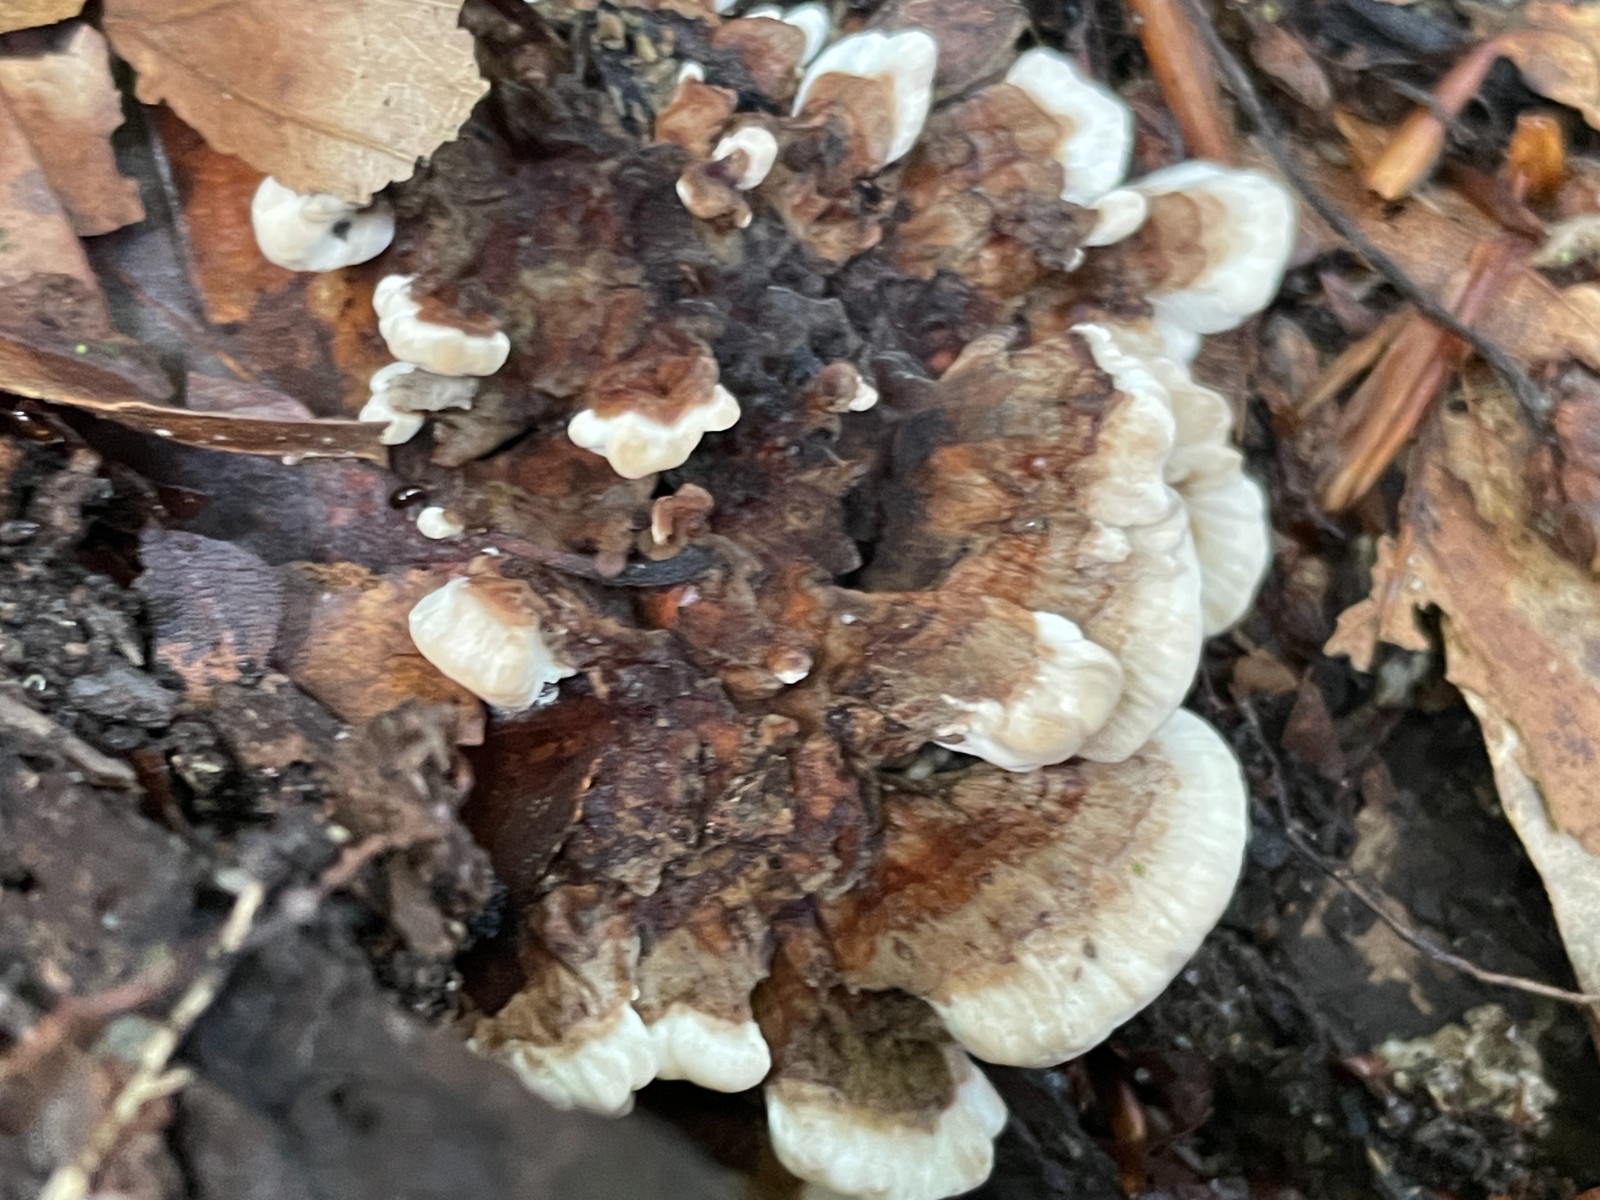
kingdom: Fungi
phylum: Basidiomycota
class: Agaricomycetes
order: Polyporales
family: Polyporaceae
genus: Trametes
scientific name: Trametes versicolor
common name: broget læderporesvamp
